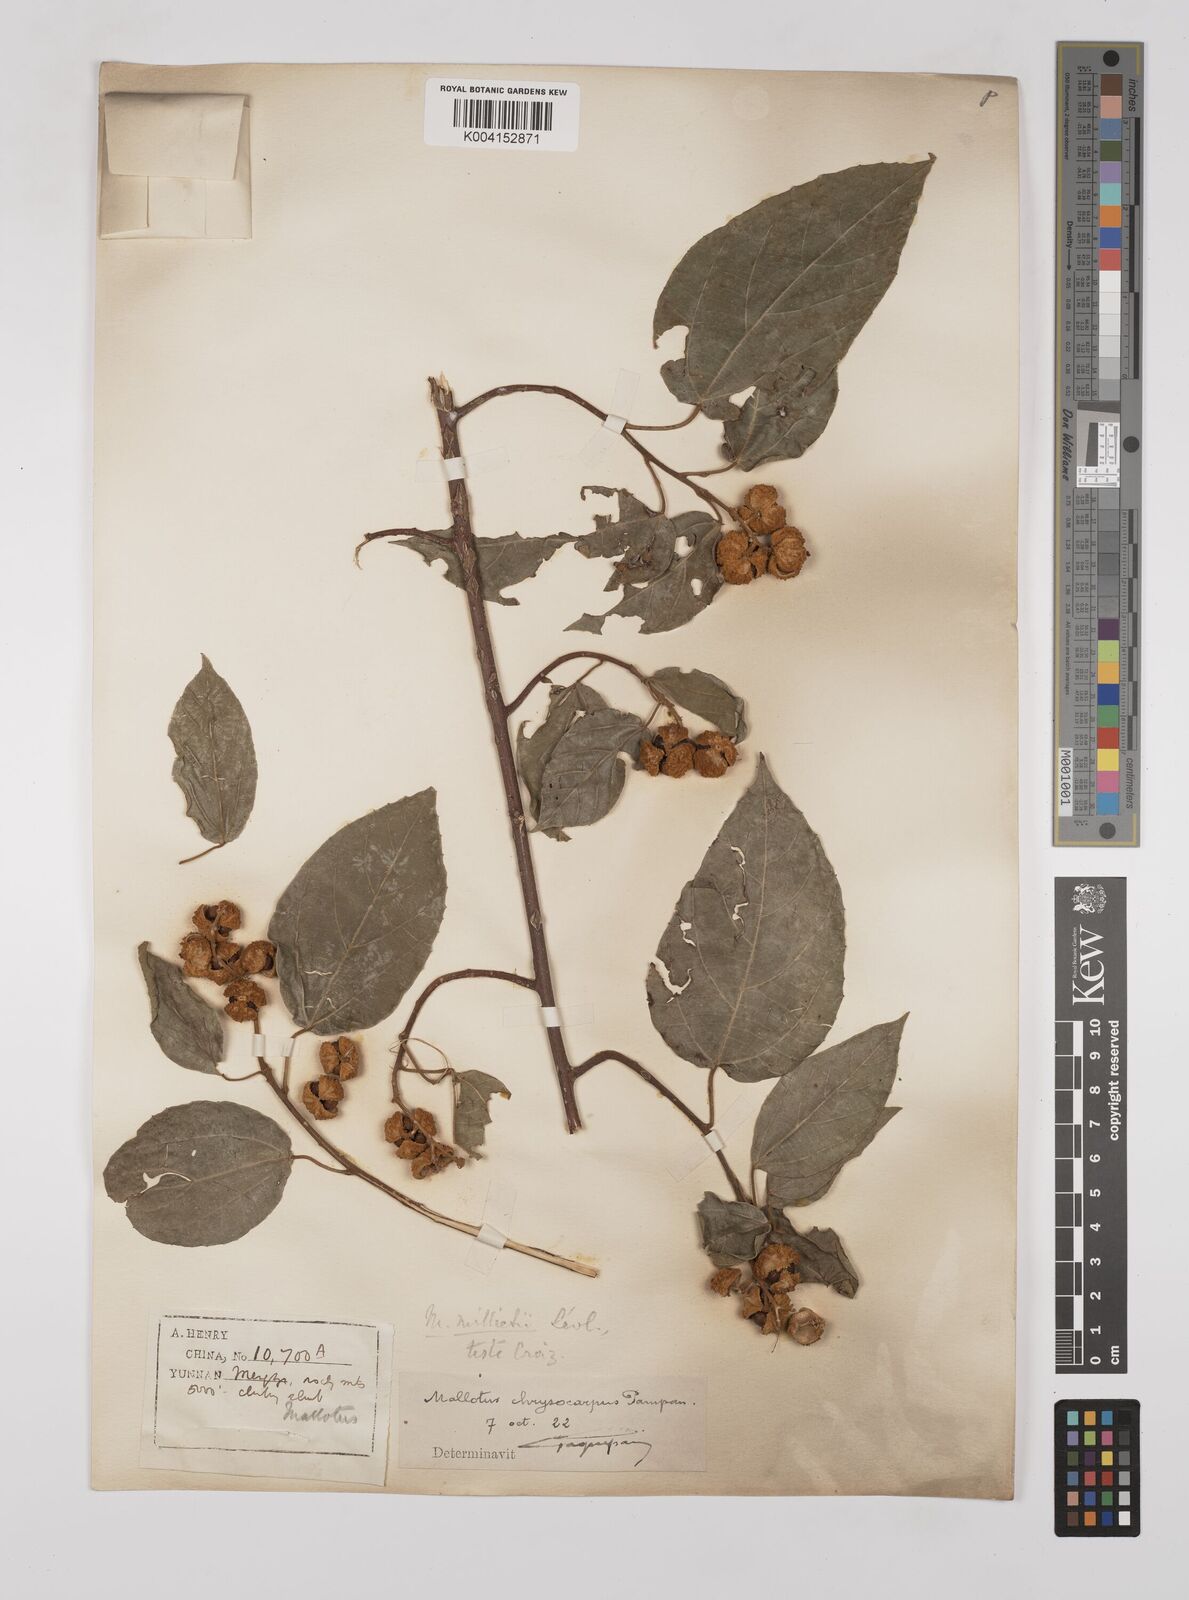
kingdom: Plantae
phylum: Tracheophyta
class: Magnoliopsida
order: Malpighiales
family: Euphorbiaceae
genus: Mallotus
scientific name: Mallotus millietii
